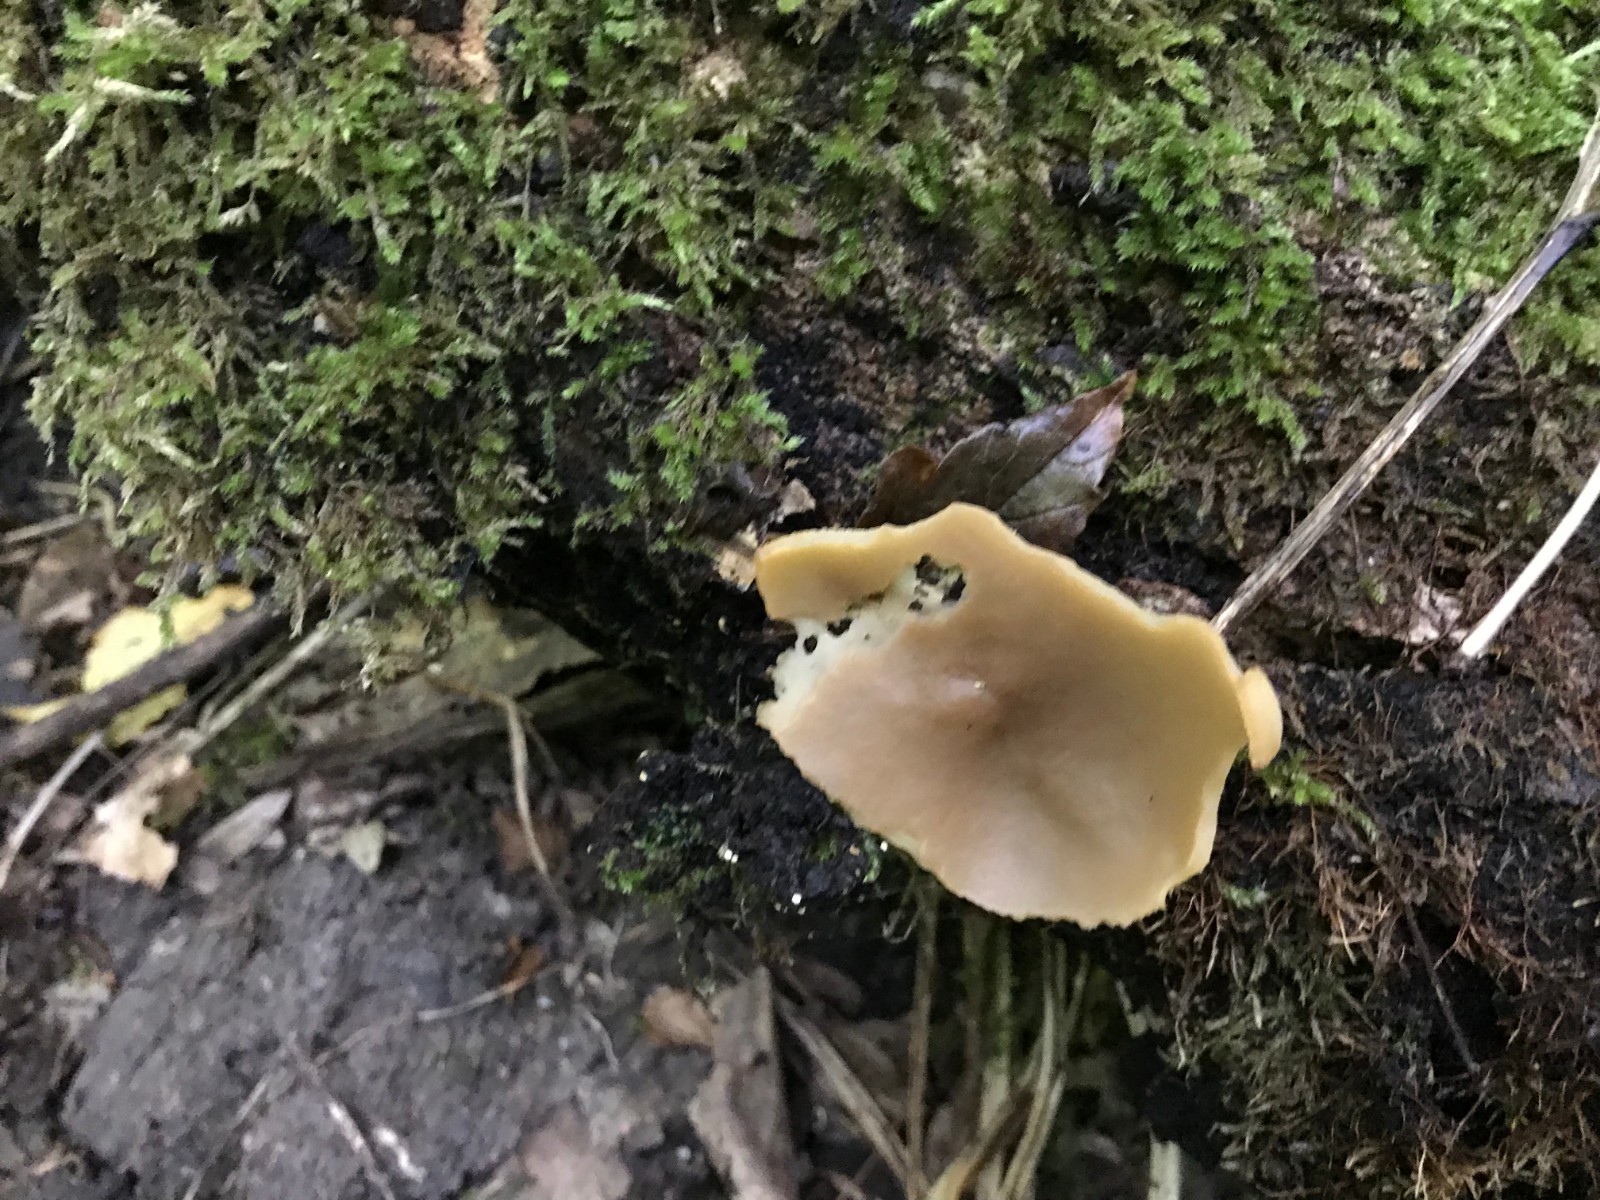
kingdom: Fungi
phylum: Ascomycota
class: Pezizomycetes
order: Pezizales
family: Pezizaceae
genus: Peziza
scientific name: Peziza varia
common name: Ved-bægersvamp
